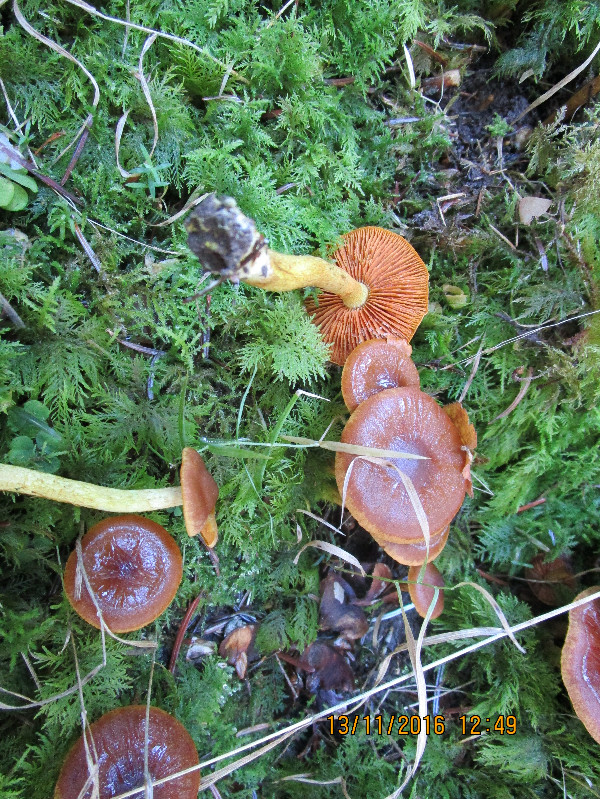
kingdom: Fungi
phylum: Basidiomycota
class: Agaricomycetes
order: Agaricales
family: Cortinariaceae
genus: Cortinarius
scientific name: Cortinarius malicorius
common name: grønkødet slørhat
